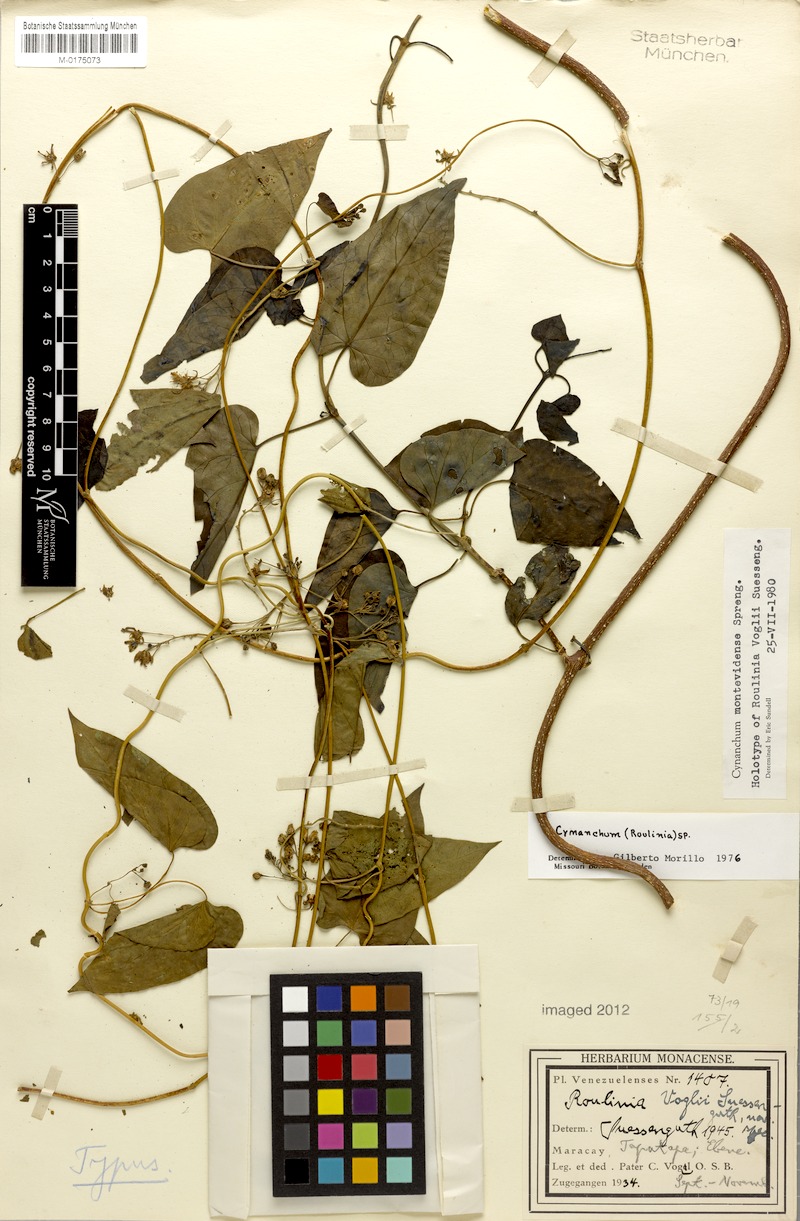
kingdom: Plantae
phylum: Tracheophyta
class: Magnoliopsida
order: Gentianales
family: Apocynaceae
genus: Cynanchum
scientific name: Cynanchum montevidense
